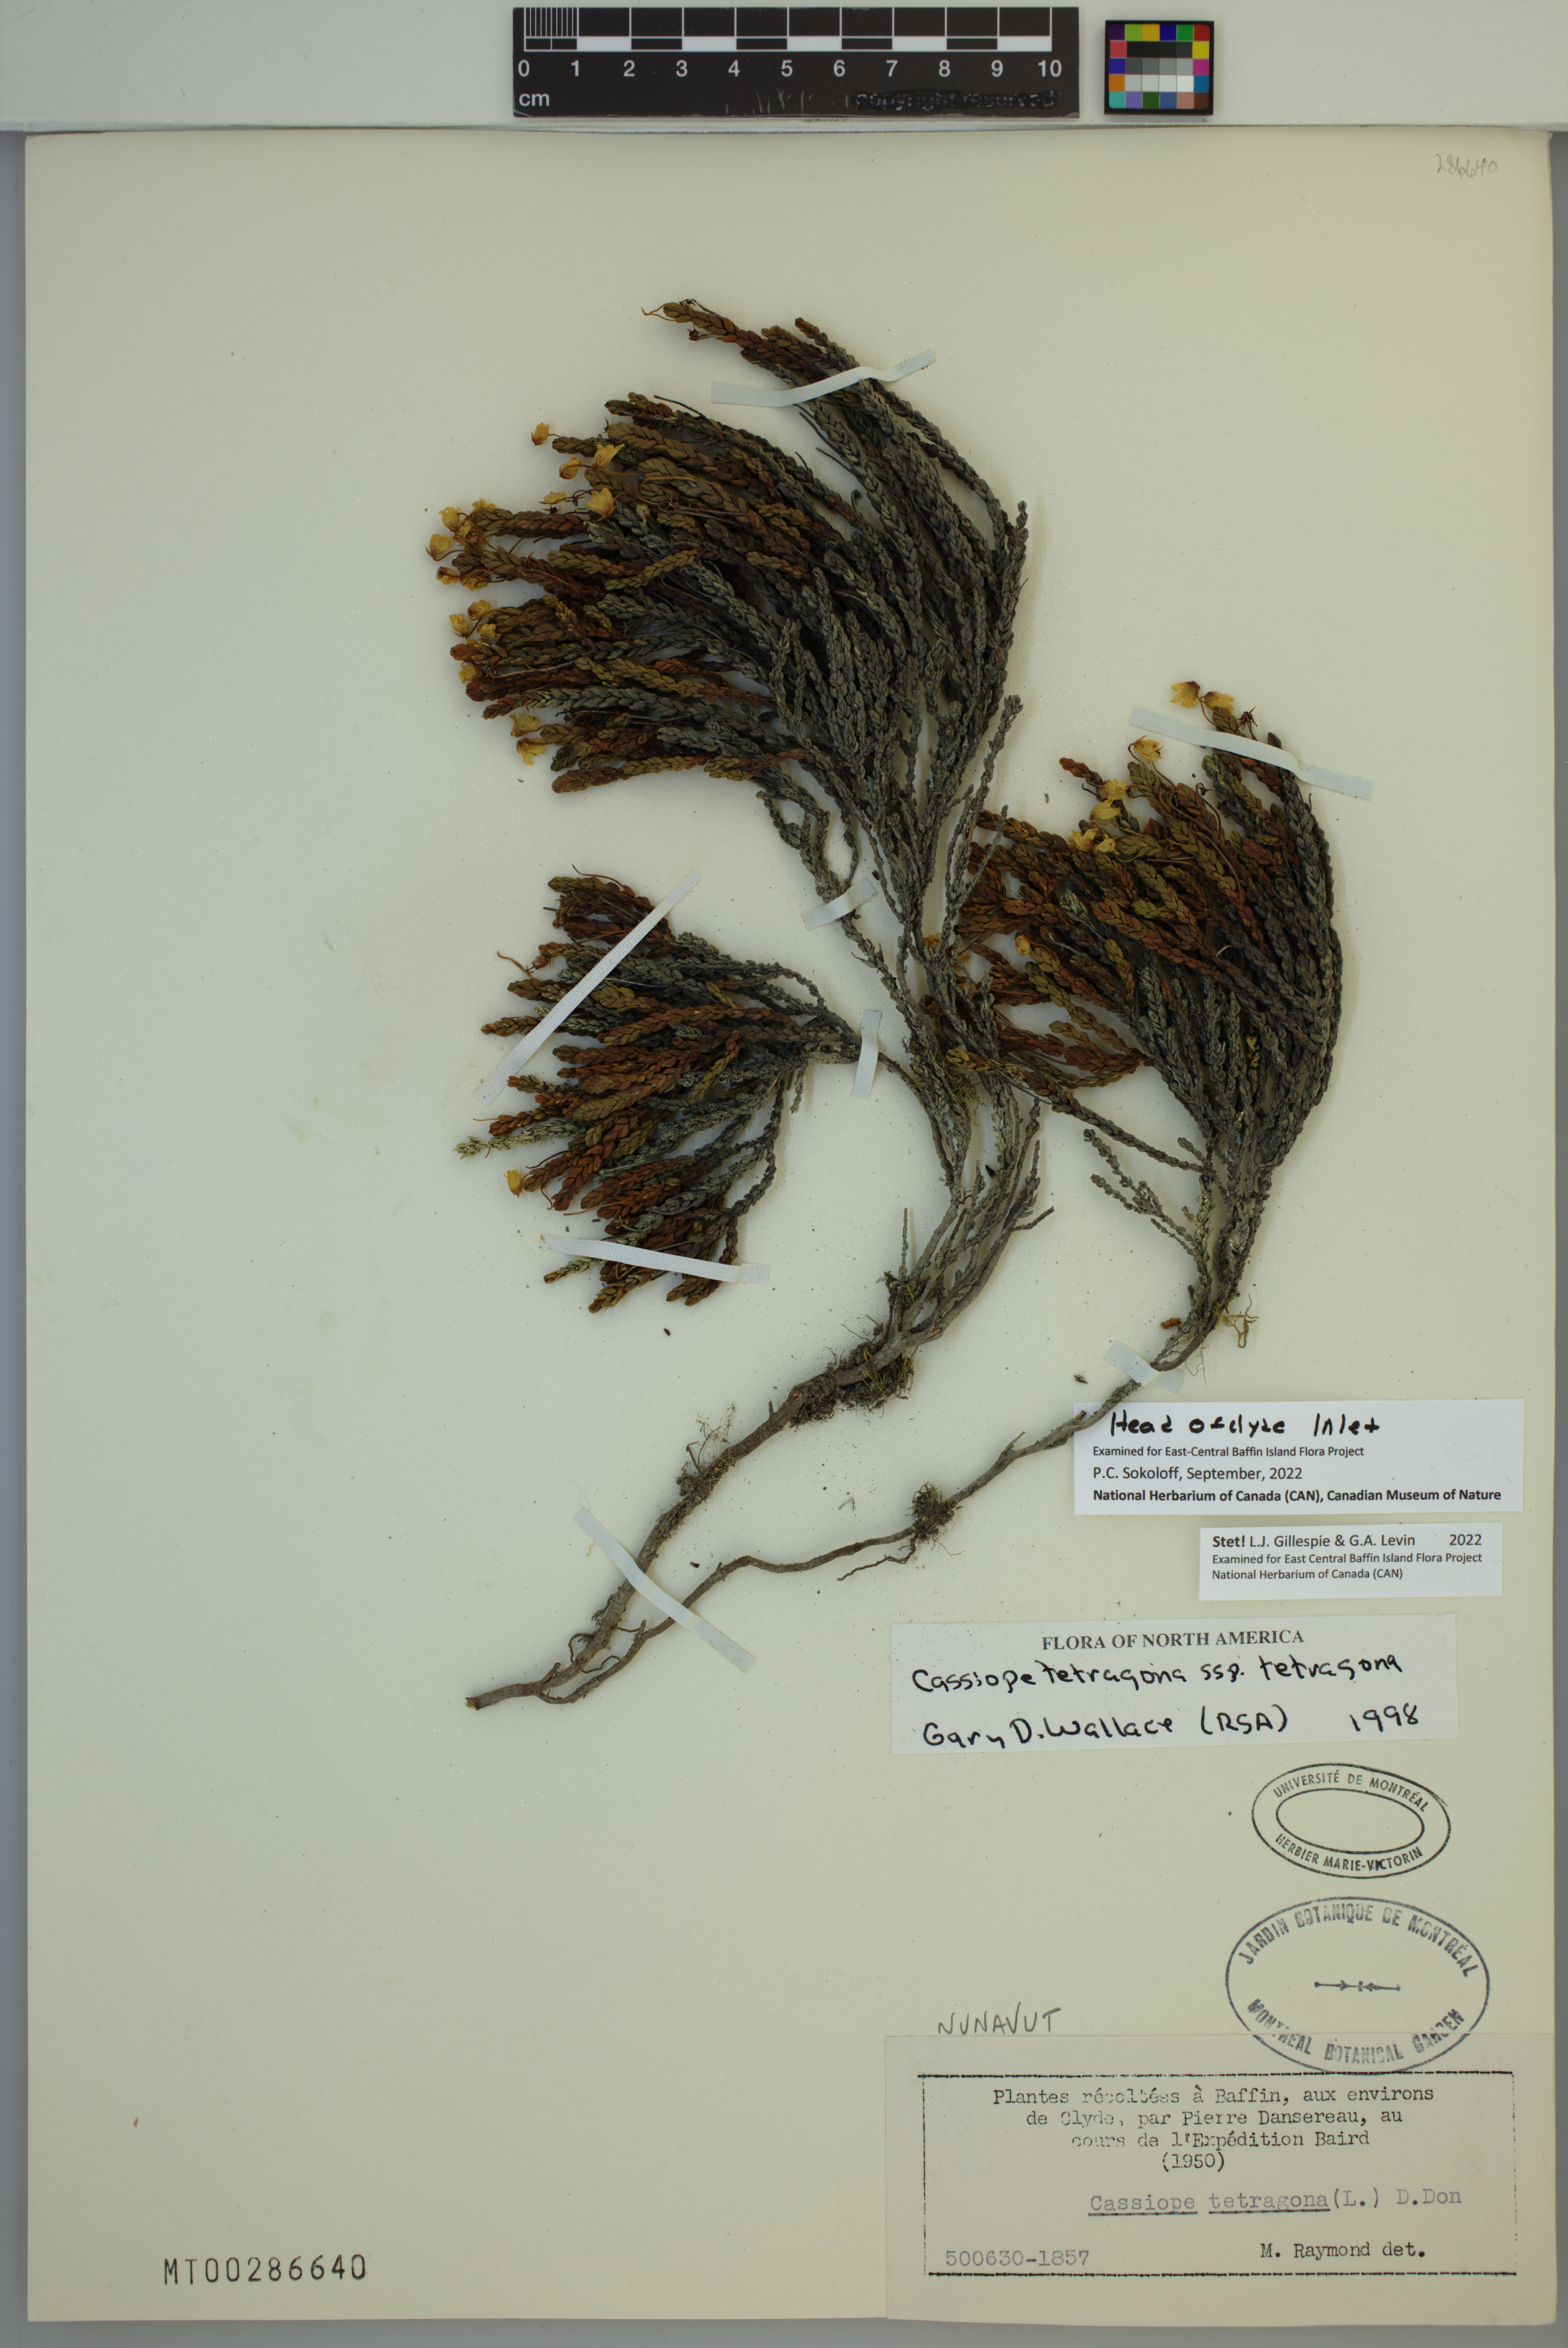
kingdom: Plantae
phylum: Tracheophyta
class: Magnoliopsida
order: Ericales
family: Ericaceae
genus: Cassiope
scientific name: Cassiope tetragona
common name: Arctic bell heather
